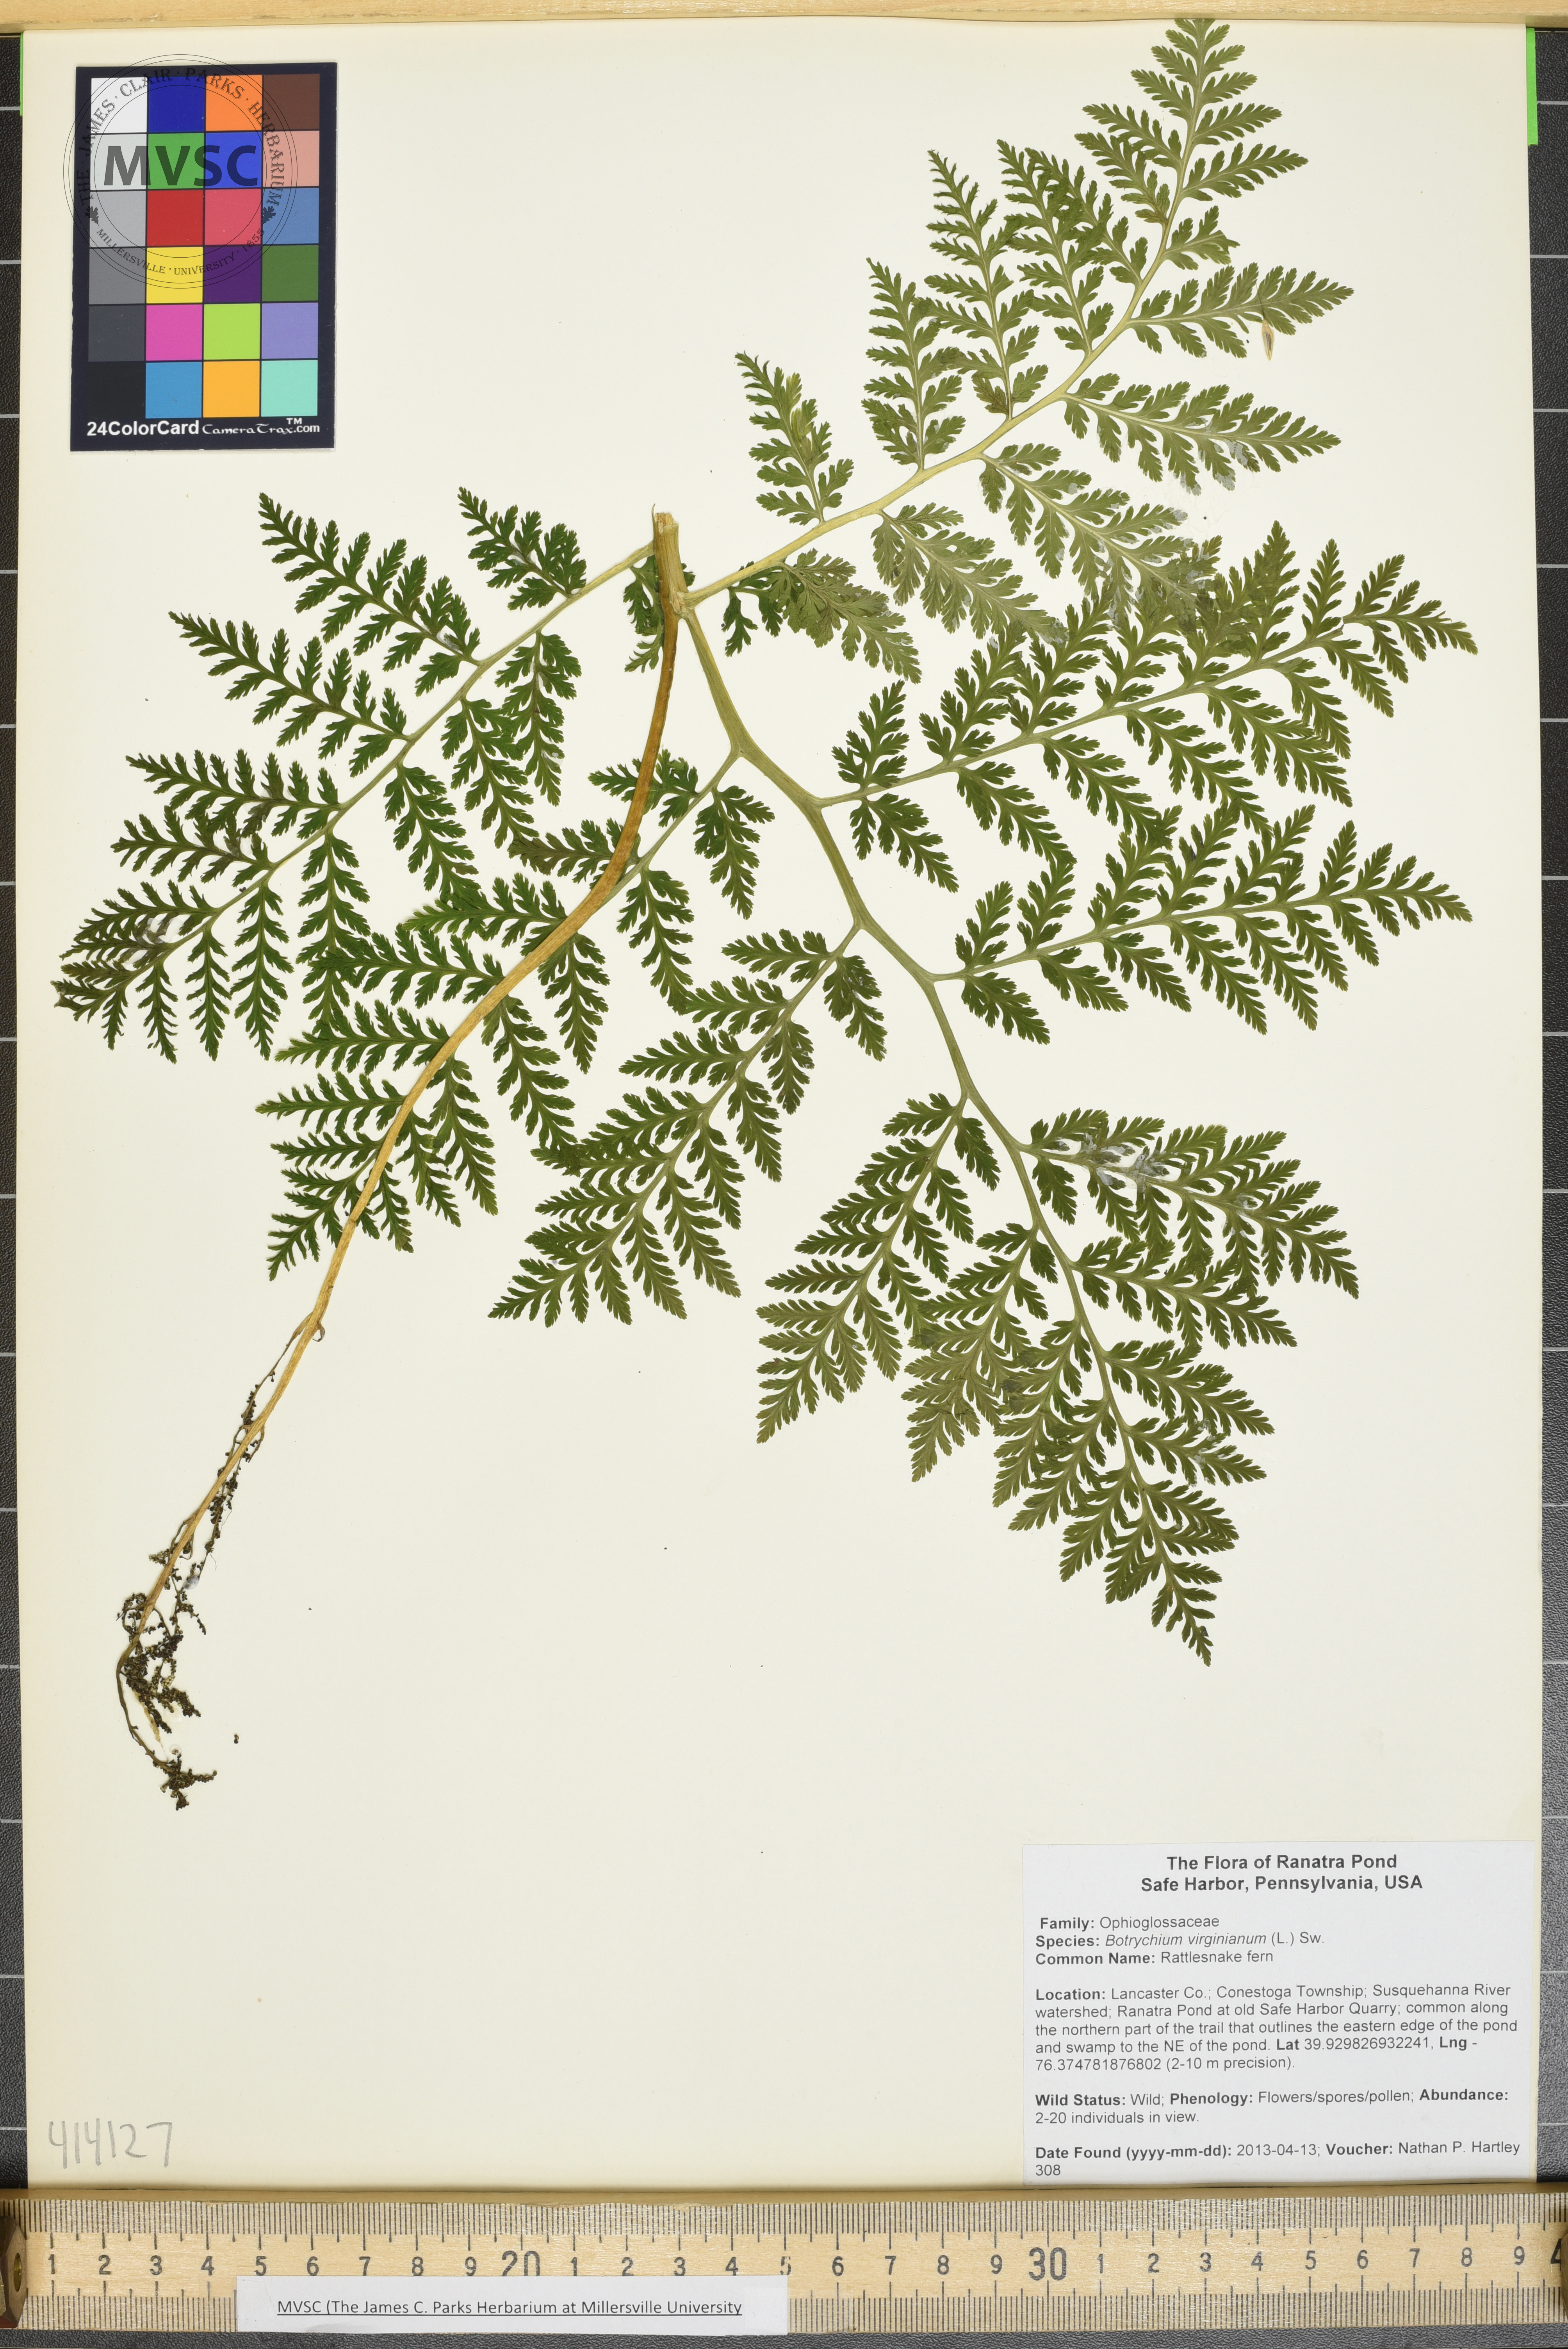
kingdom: Plantae
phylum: Tracheophyta
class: Polypodiopsida
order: Ophioglossales
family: Ophioglossaceae
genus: Botrychium
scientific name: Botrychium virginianum
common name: Rattlesnake fern
